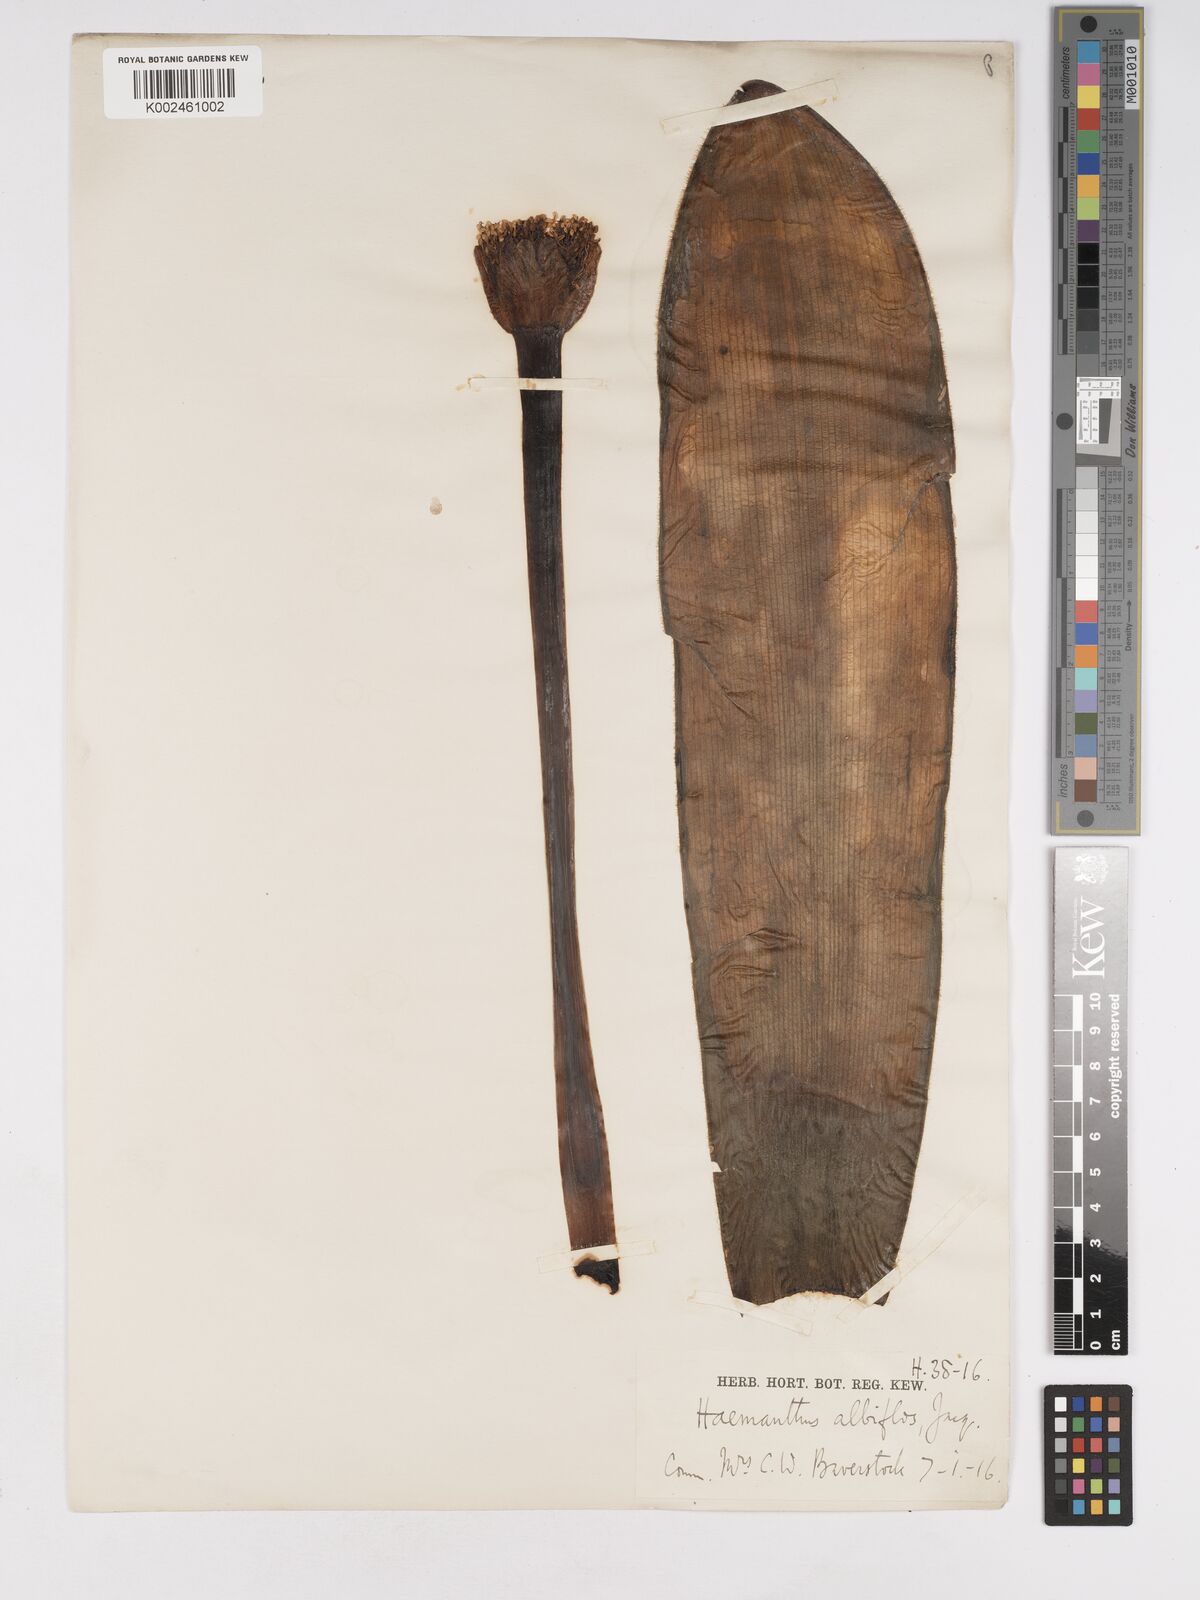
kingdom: Plantae
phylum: Tracheophyta
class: Liliopsida
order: Asparagales
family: Amaryllidaceae
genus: Haemanthus
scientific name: Haemanthus albiflos
